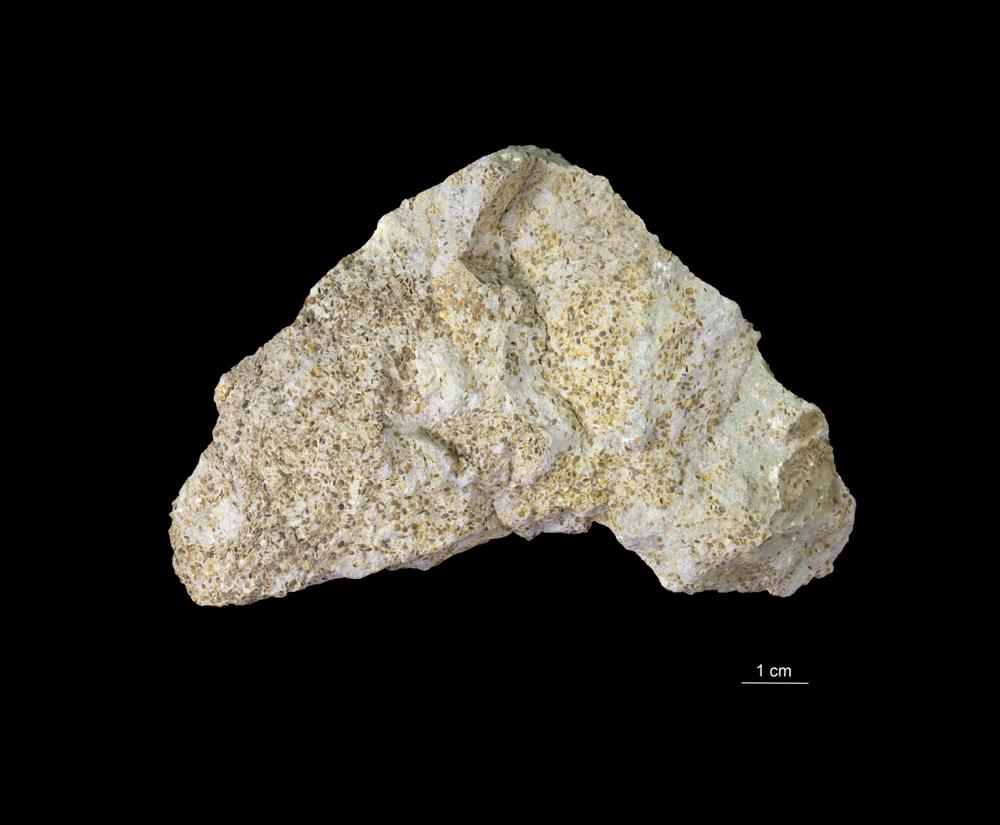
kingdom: Animalia
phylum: Arthropoda
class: Trilobita
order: Phacopida
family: Pterygometopidae
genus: Estoniops
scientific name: Estoniops panderi
